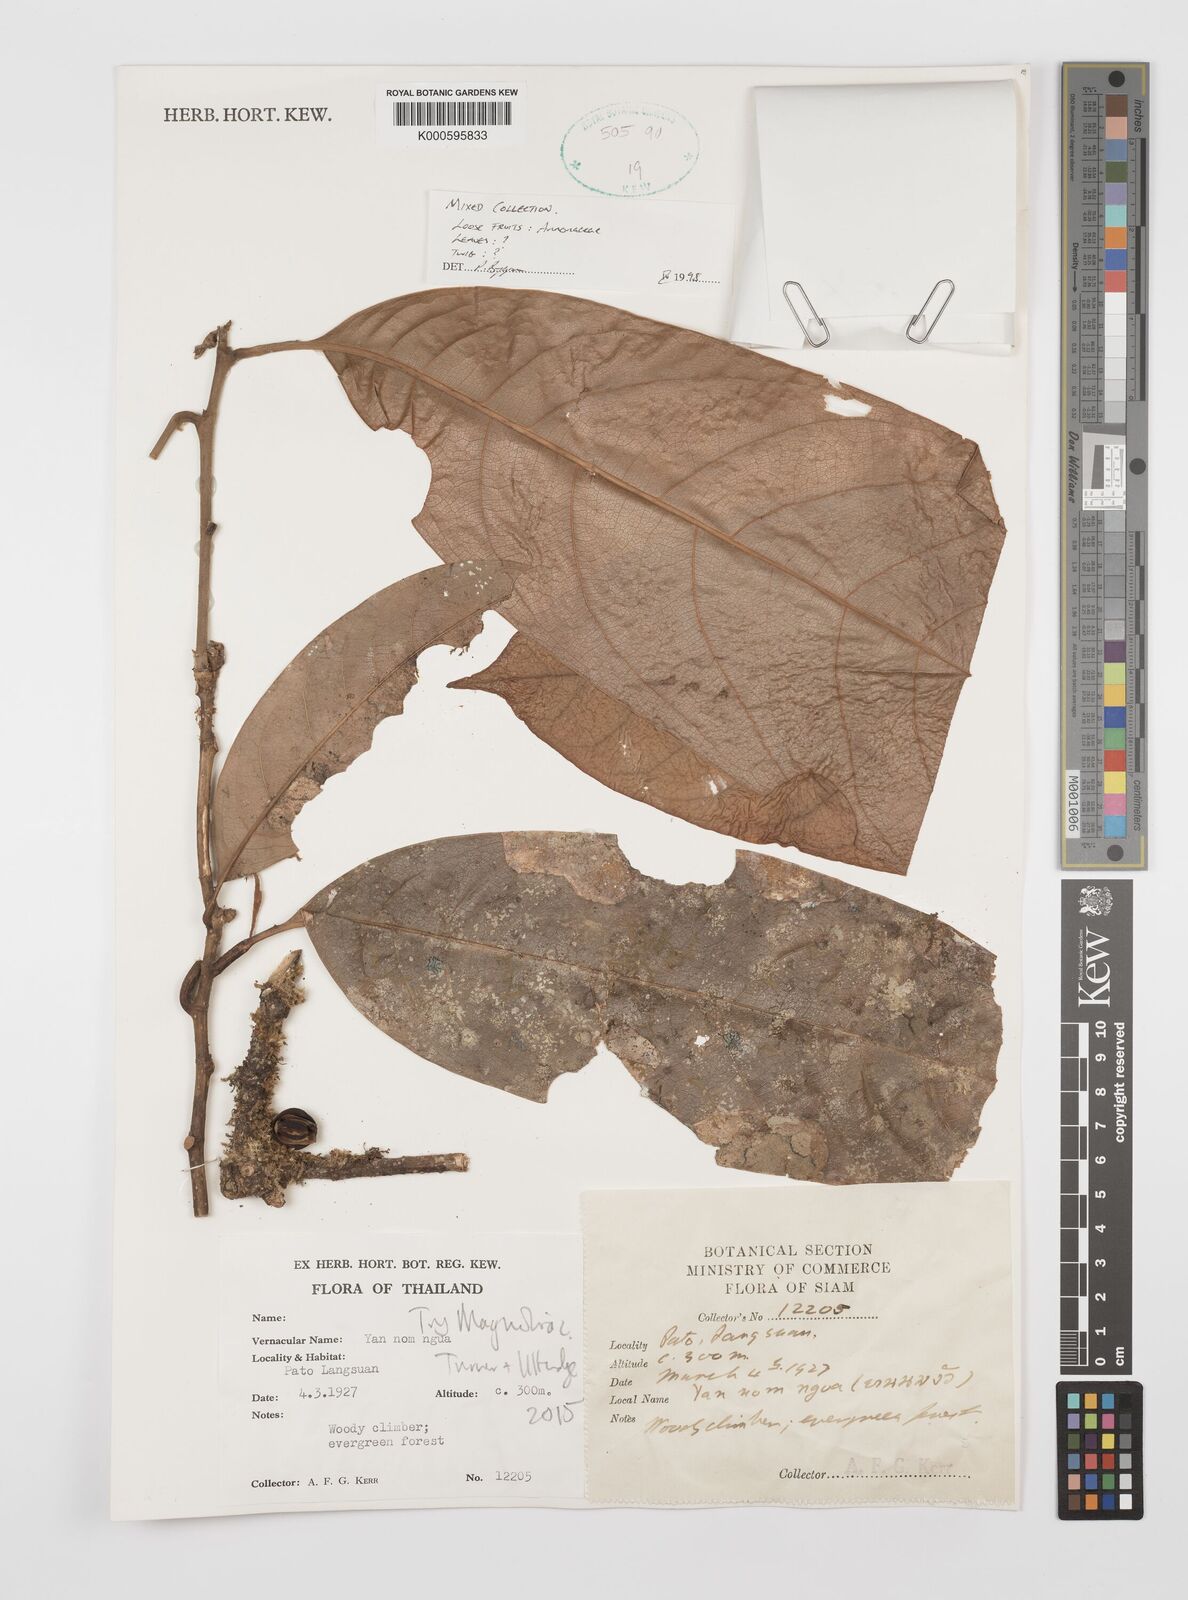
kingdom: Plantae
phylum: Tracheophyta
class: Magnoliopsida
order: Magnoliales
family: Annonaceae
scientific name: Annonaceae
